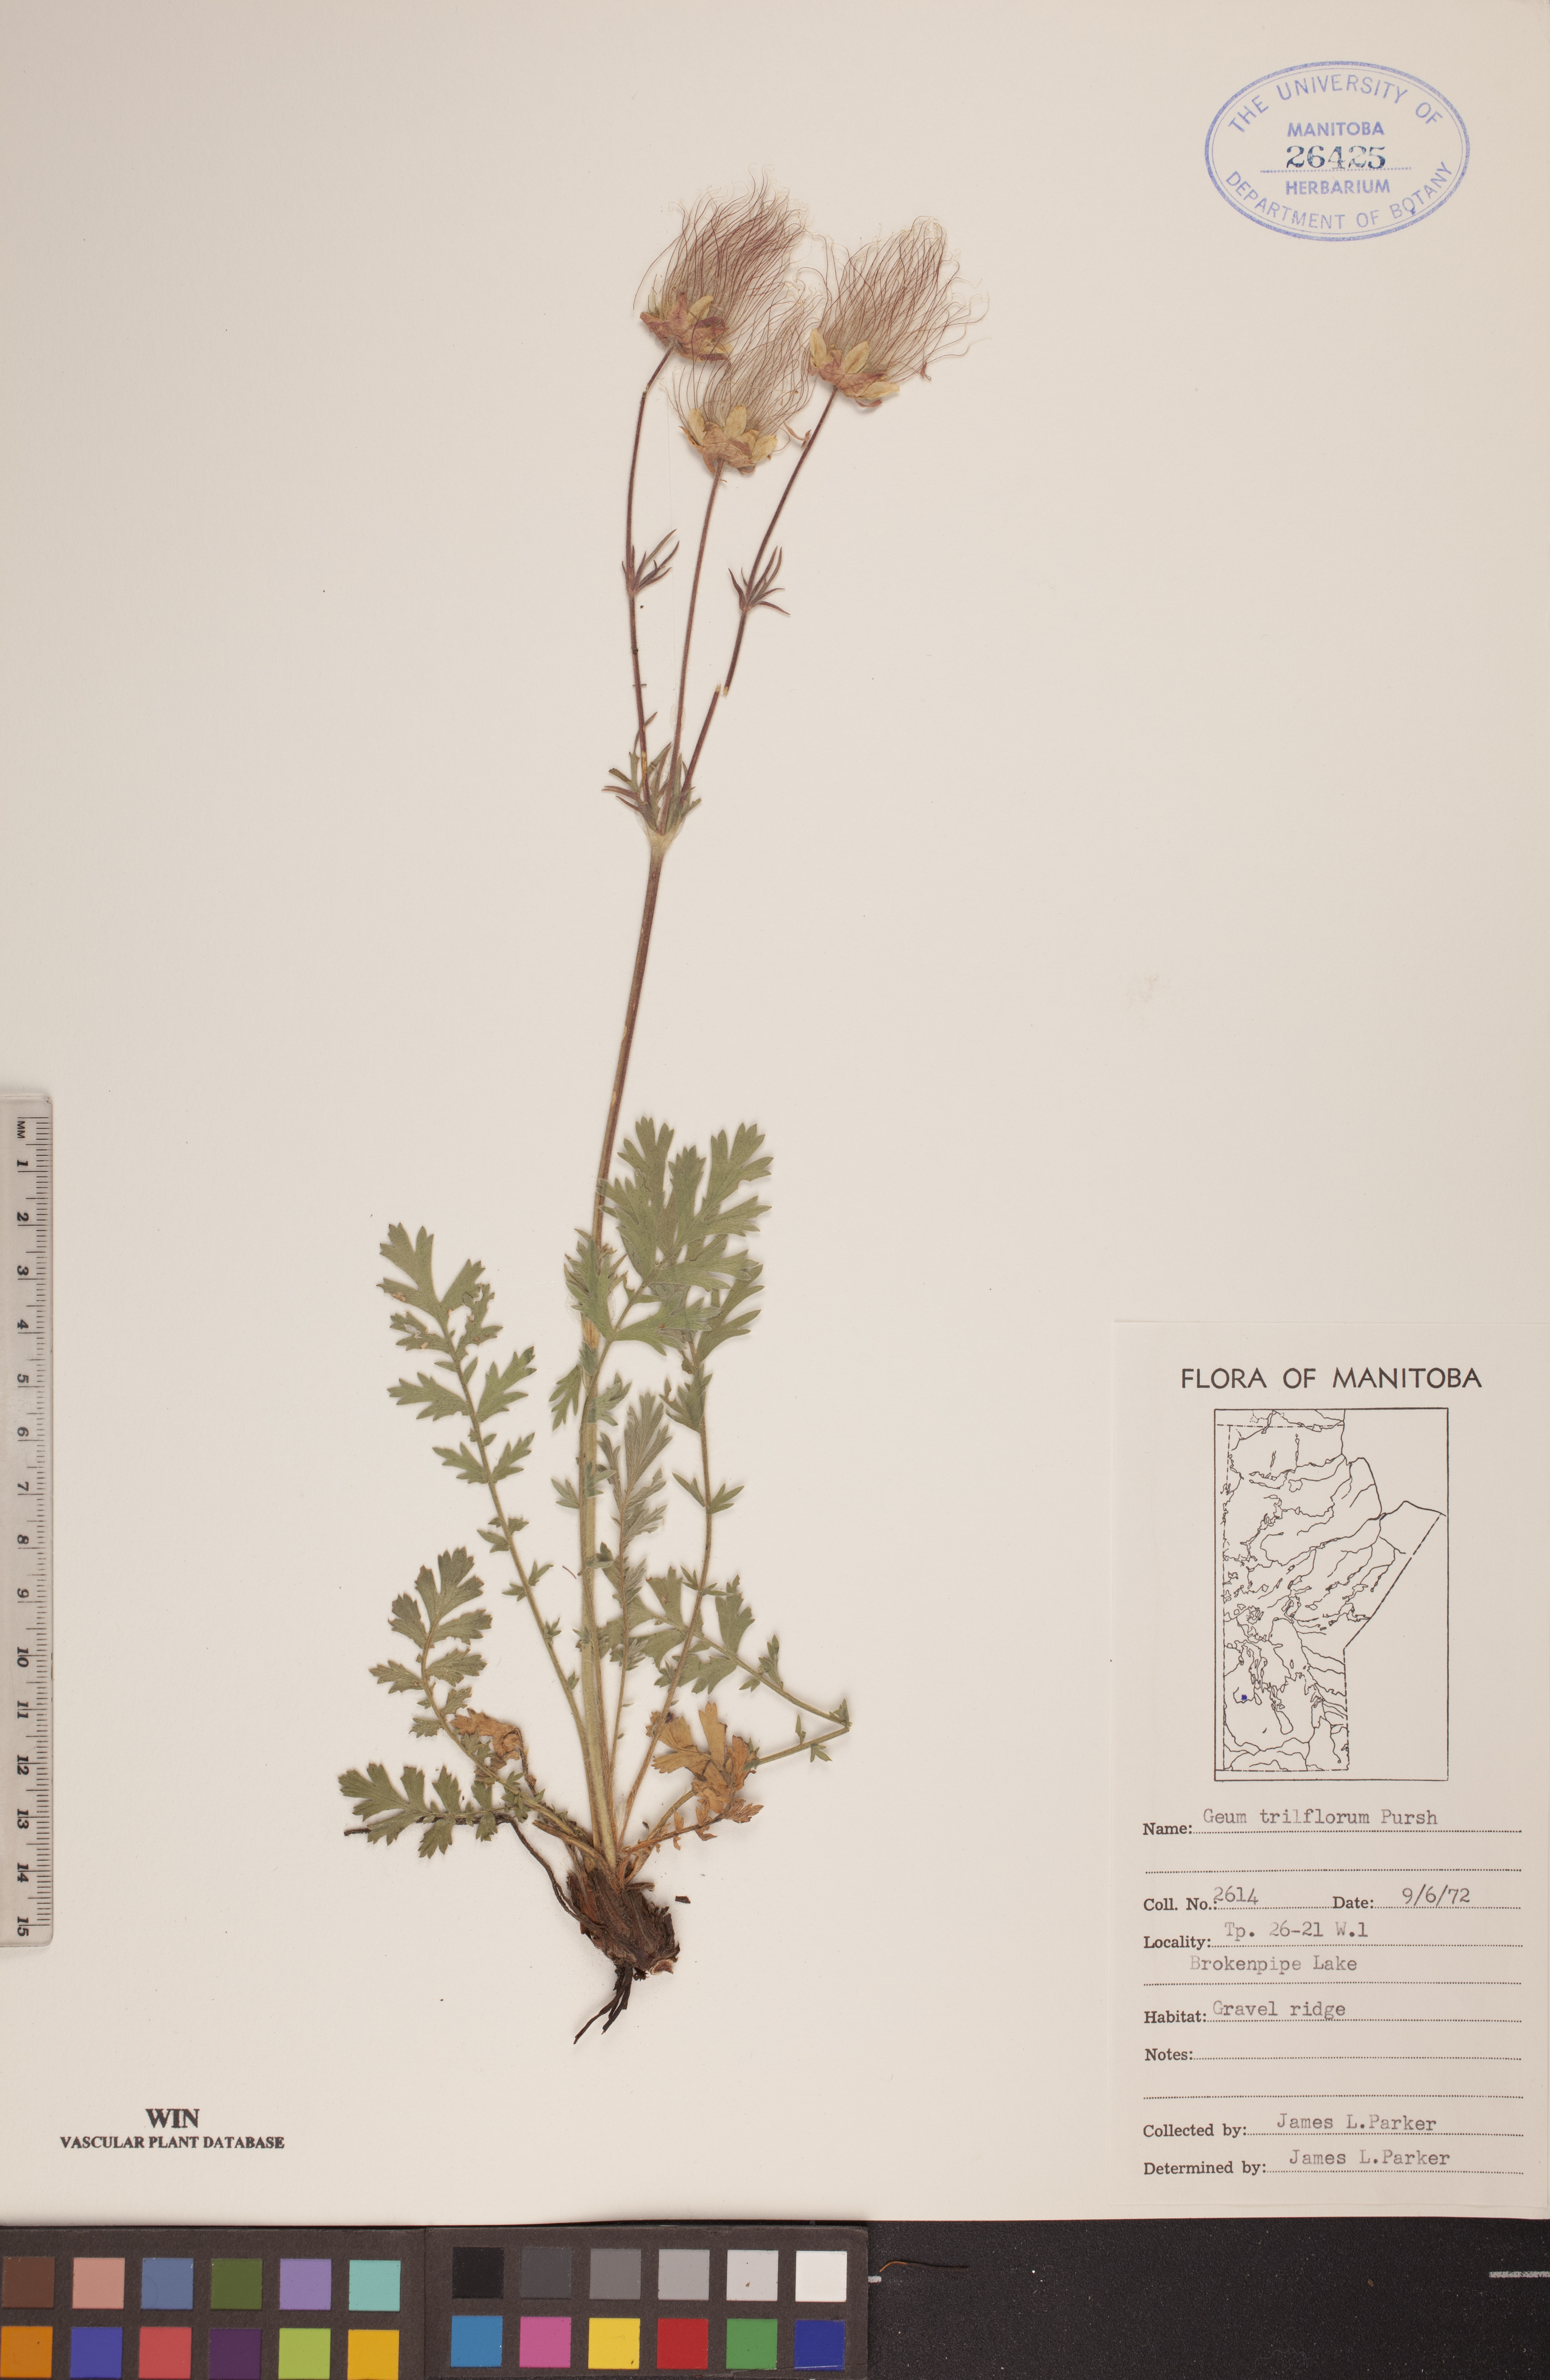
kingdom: Plantae
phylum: Tracheophyta
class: Magnoliopsida
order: Rosales
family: Rosaceae
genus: Geum
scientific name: Geum triflorum
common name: Old man's whiskers
